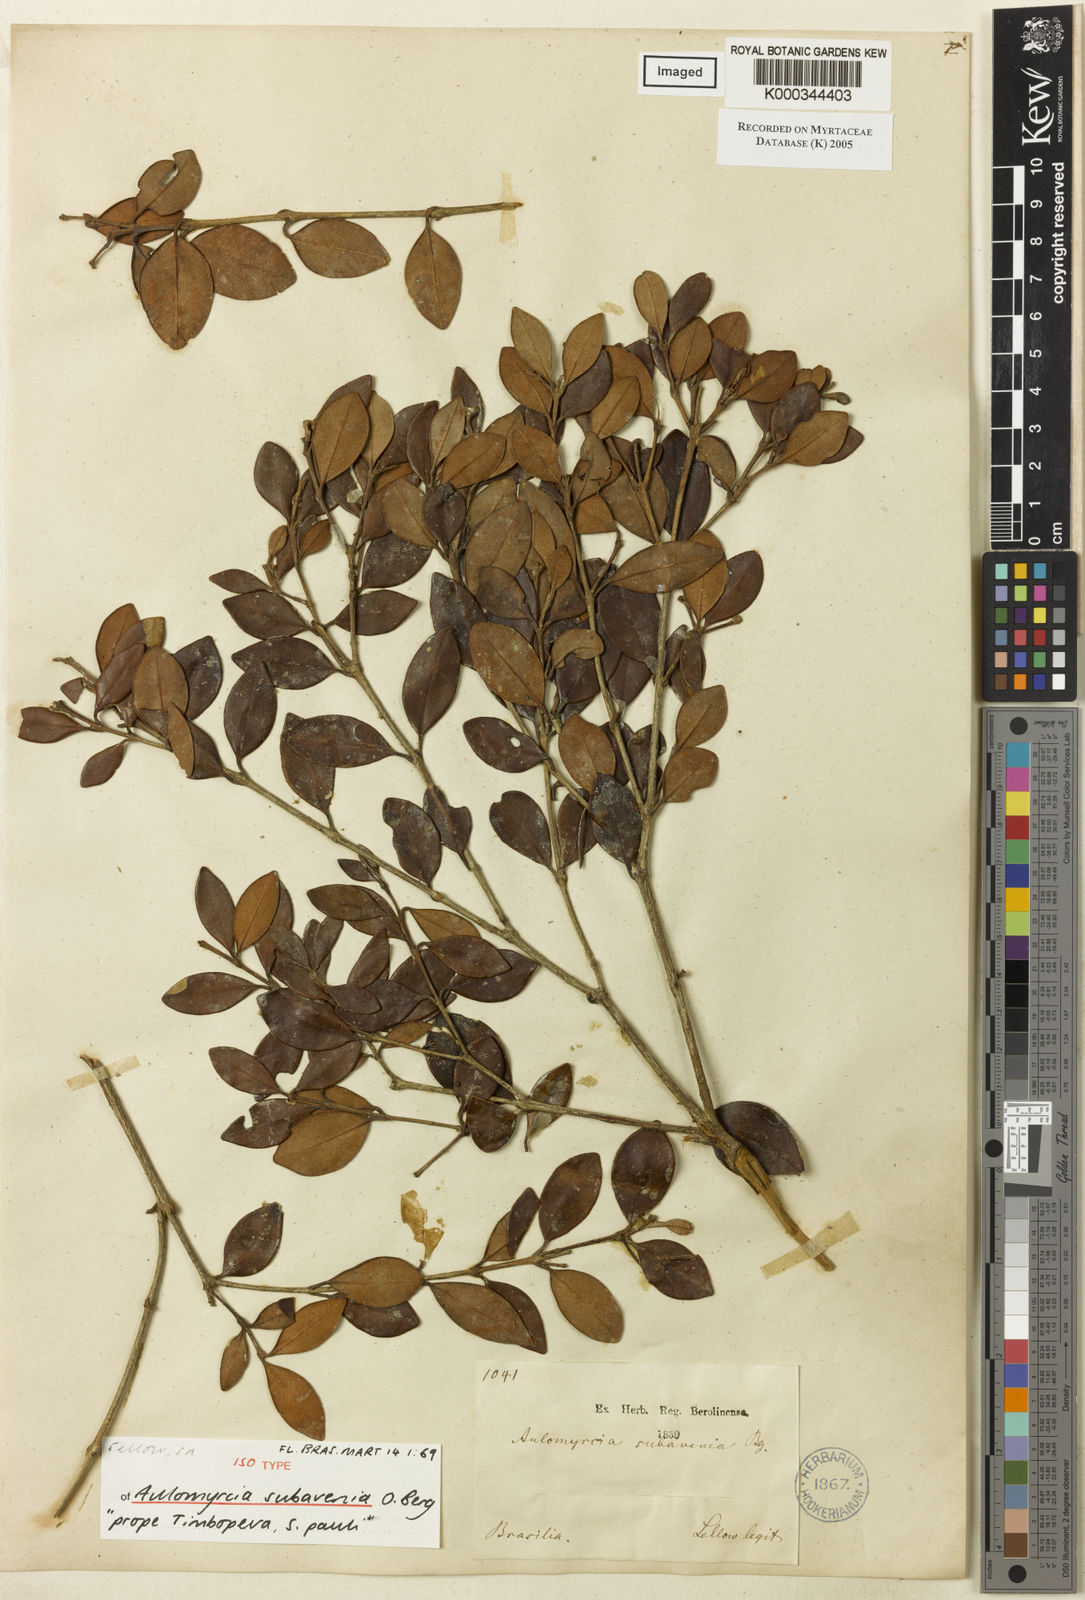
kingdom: Plantae
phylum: Tracheophyta
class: Magnoliopsida
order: Myrtales
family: Myrtaceae
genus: Myrcia
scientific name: Myrcia subavenia
